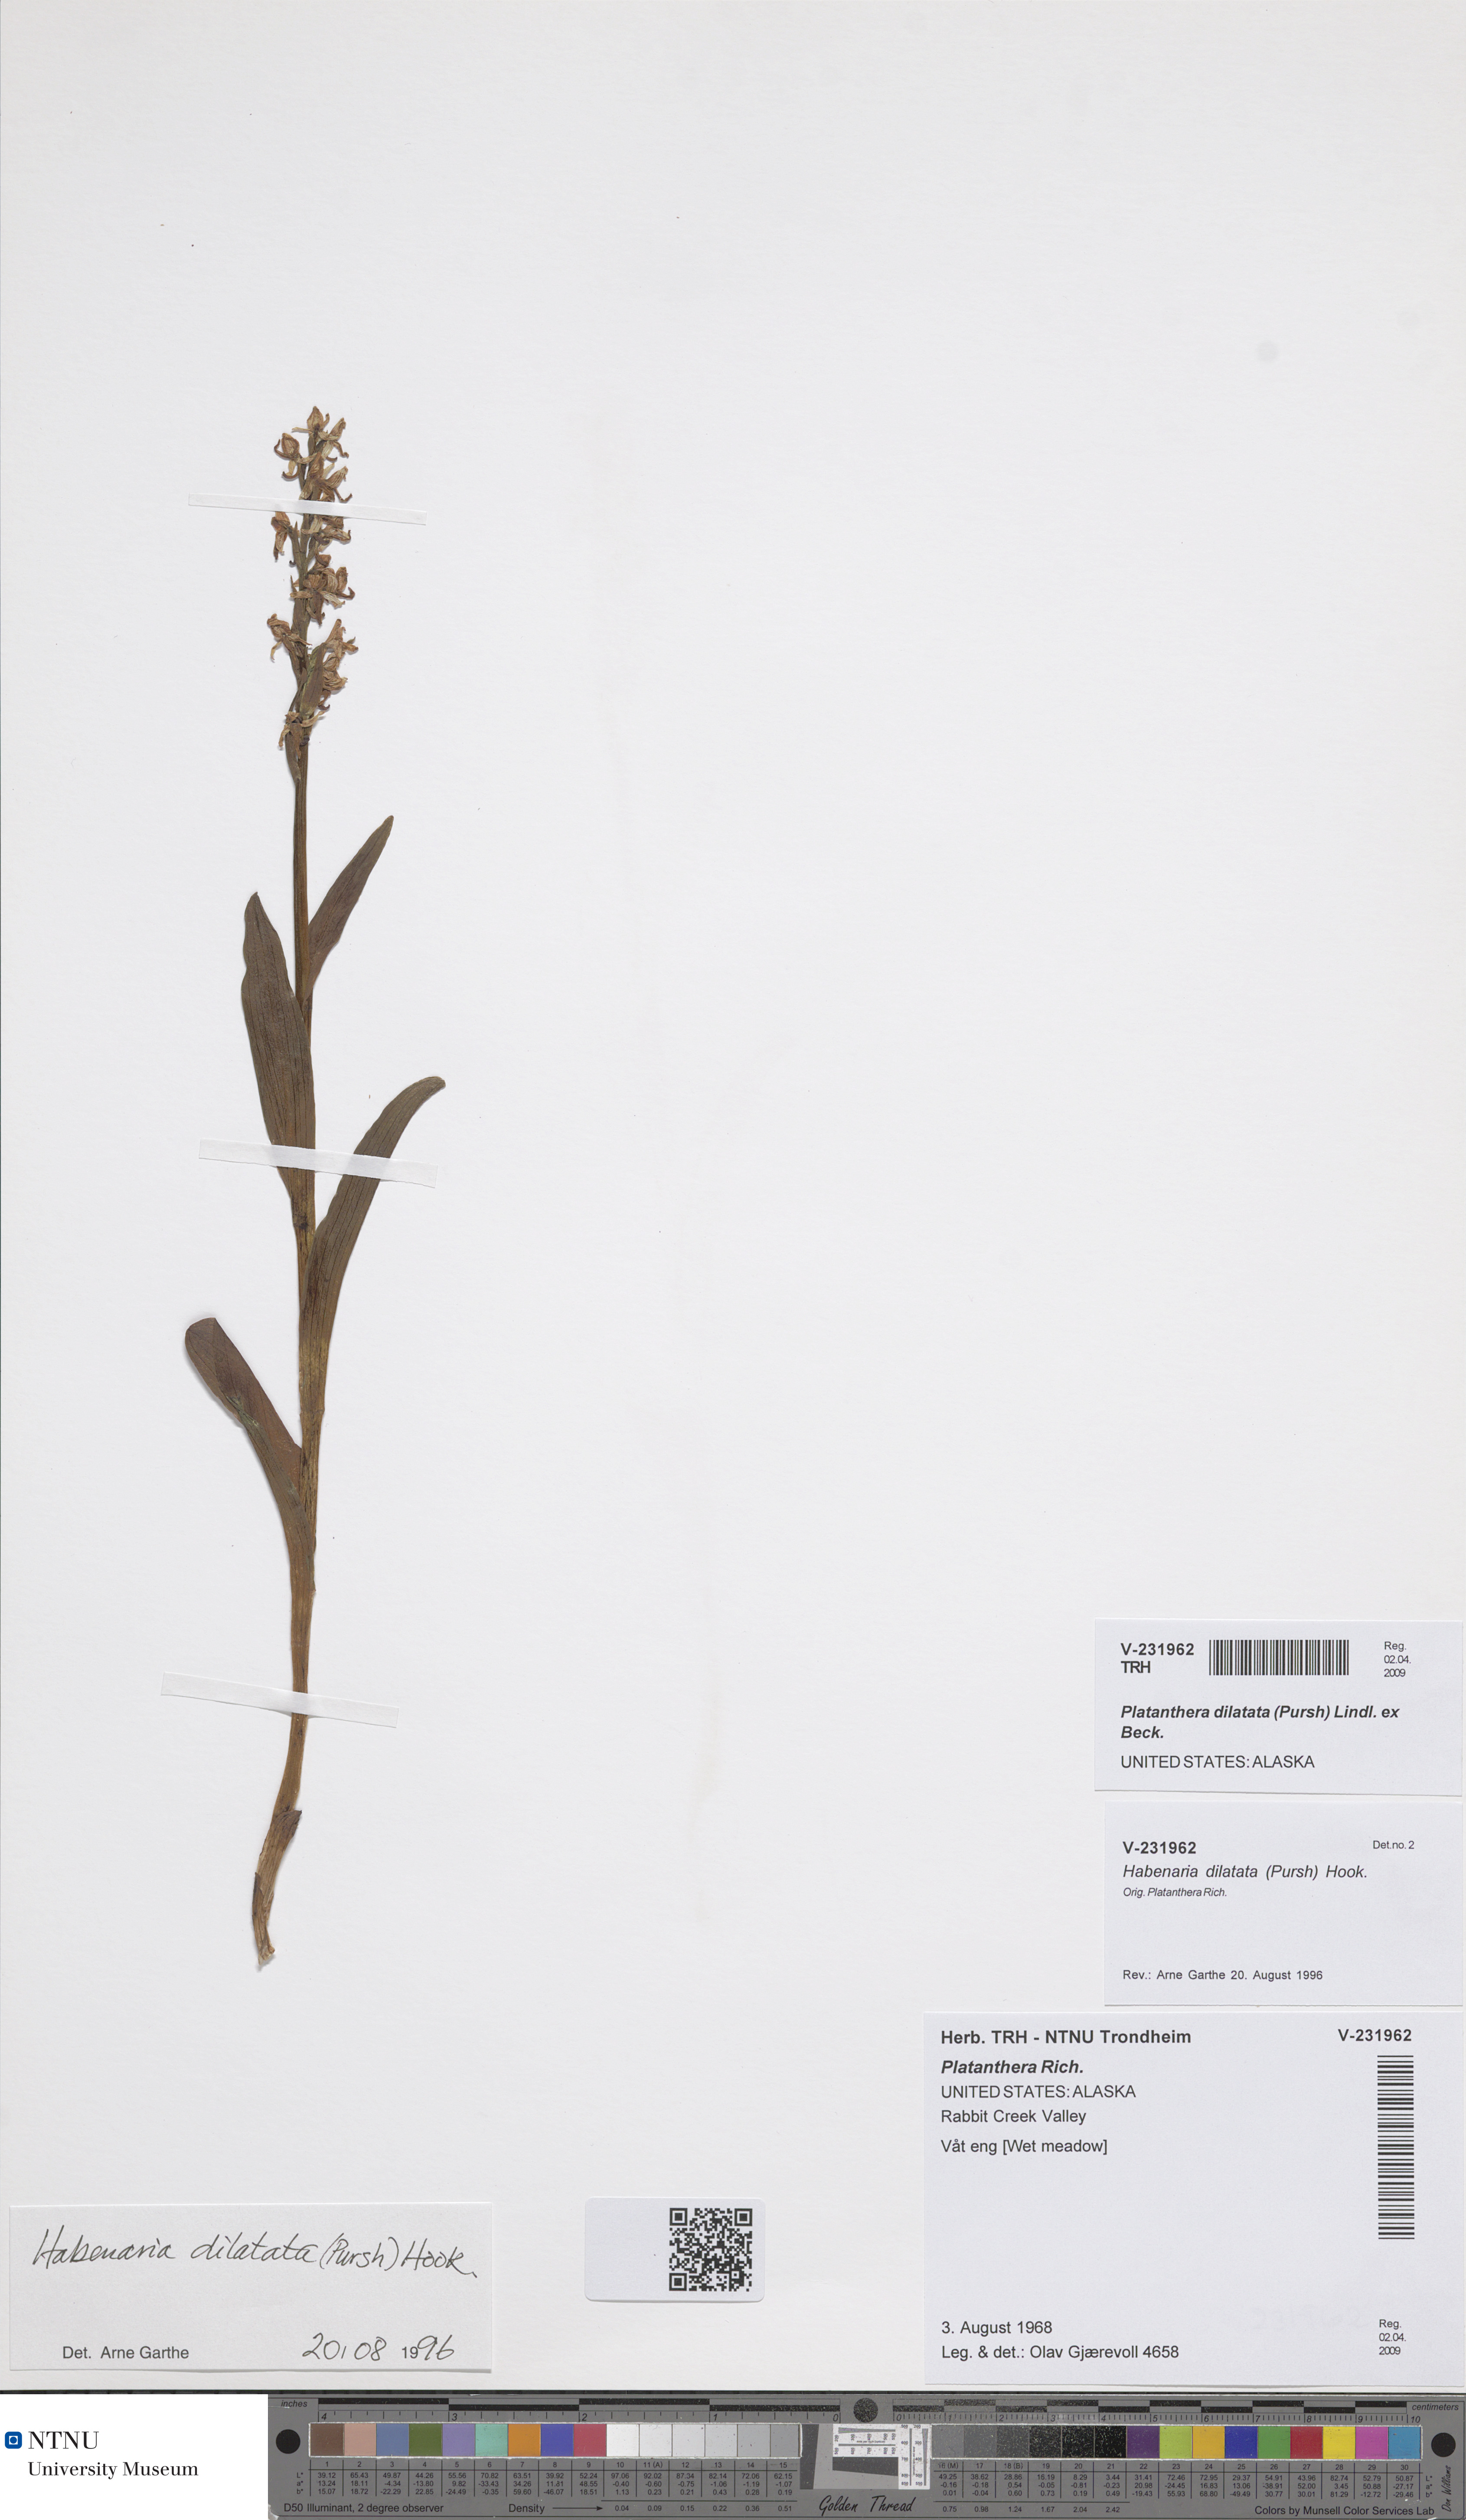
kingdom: Plantae
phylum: Tracheophyta
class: Liliopsida
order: Asparagales
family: Orchidaceae
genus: Platanthera
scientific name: Platanthera dilatata
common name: Bog candles
